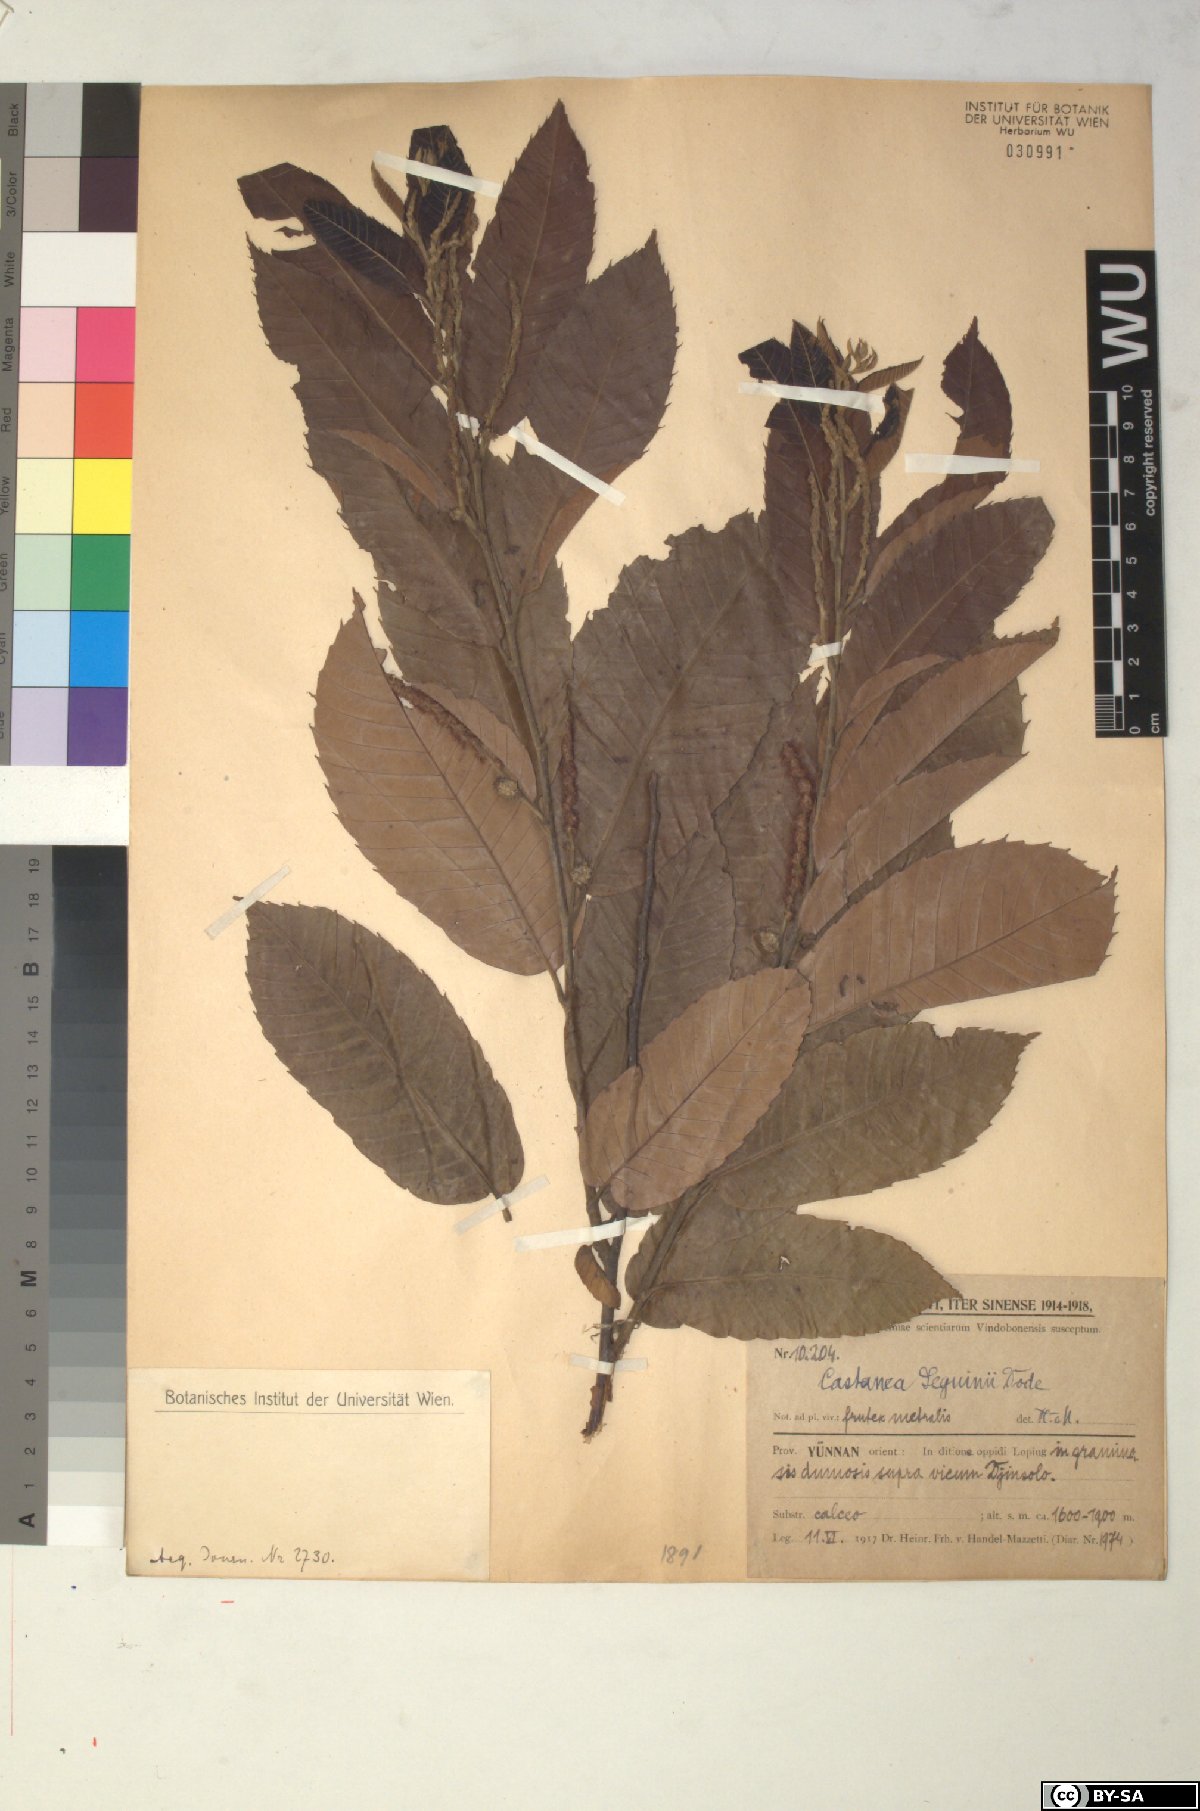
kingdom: Plantae
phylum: Tracheophyta
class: Magnoliopsida
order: Fagales
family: Fagaceae
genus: Castanea
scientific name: Castanea seguinii
